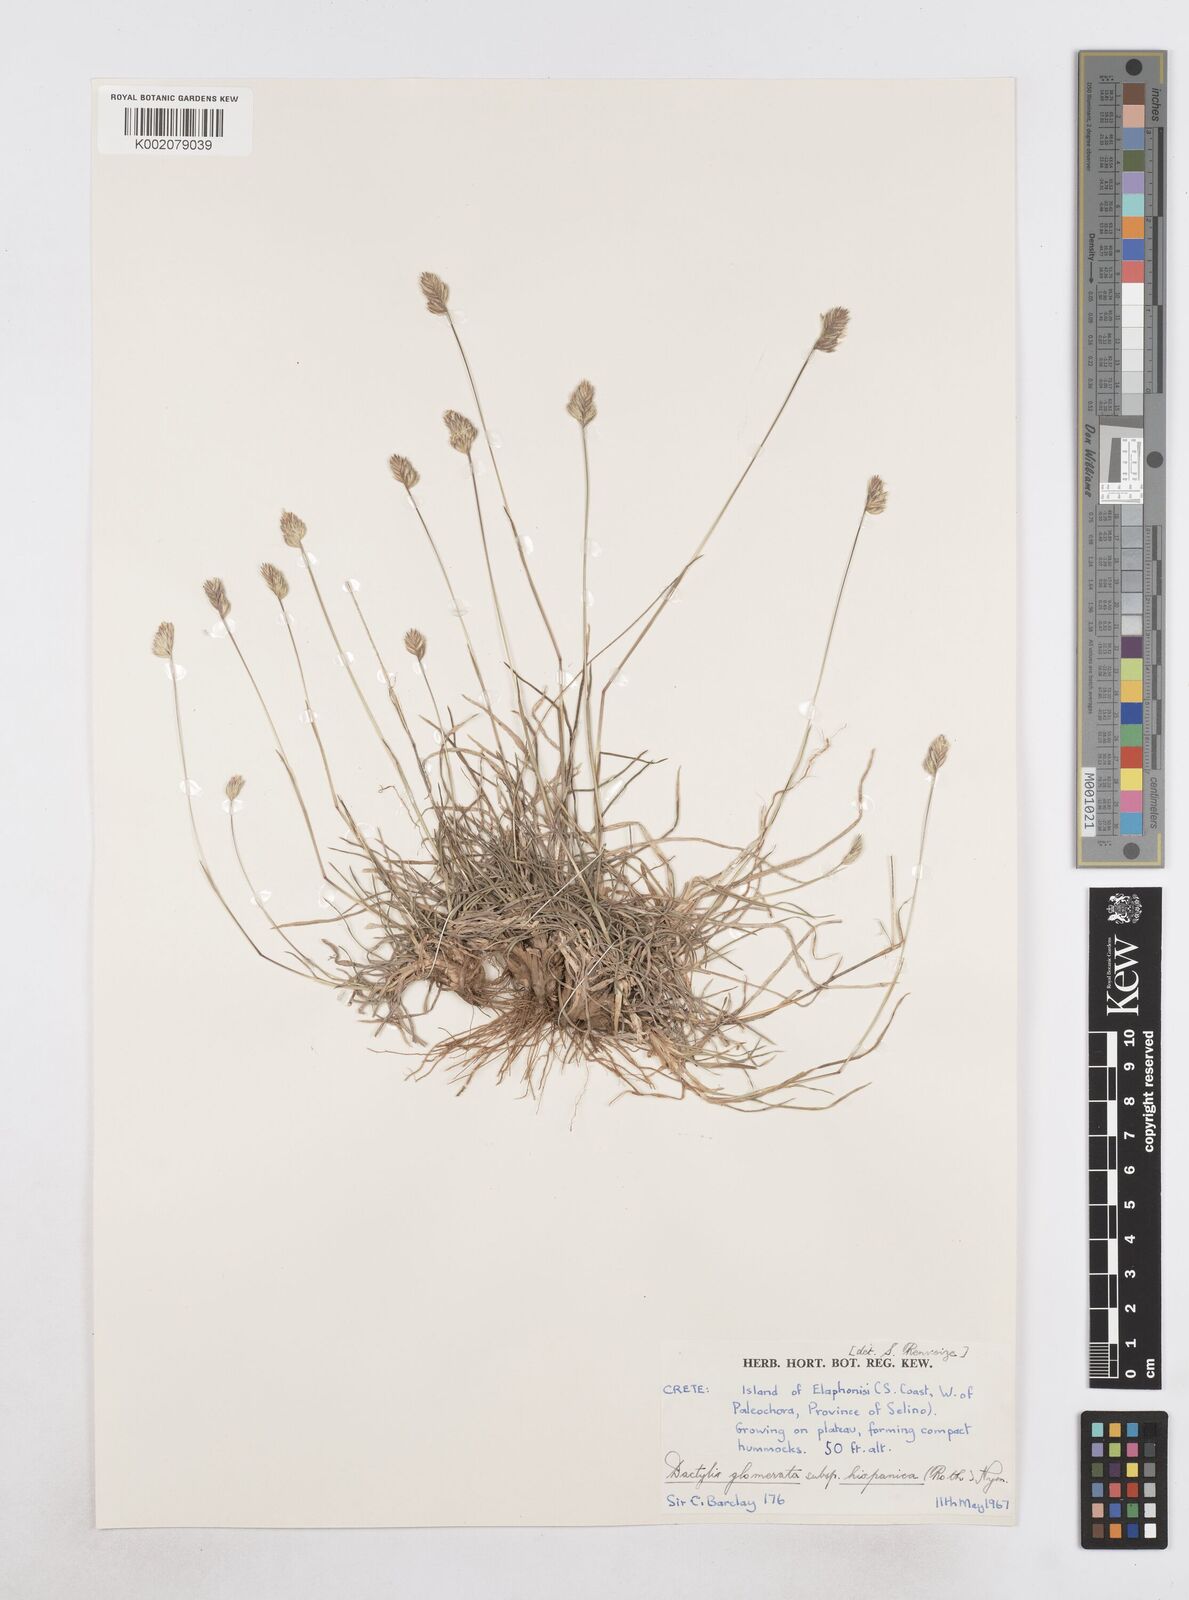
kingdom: Plantae
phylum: Tracheophyta
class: Liliopsida
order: Poales
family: Poaceae
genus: Dactylis
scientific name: Dactylis glomerata
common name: Orchardgrass
